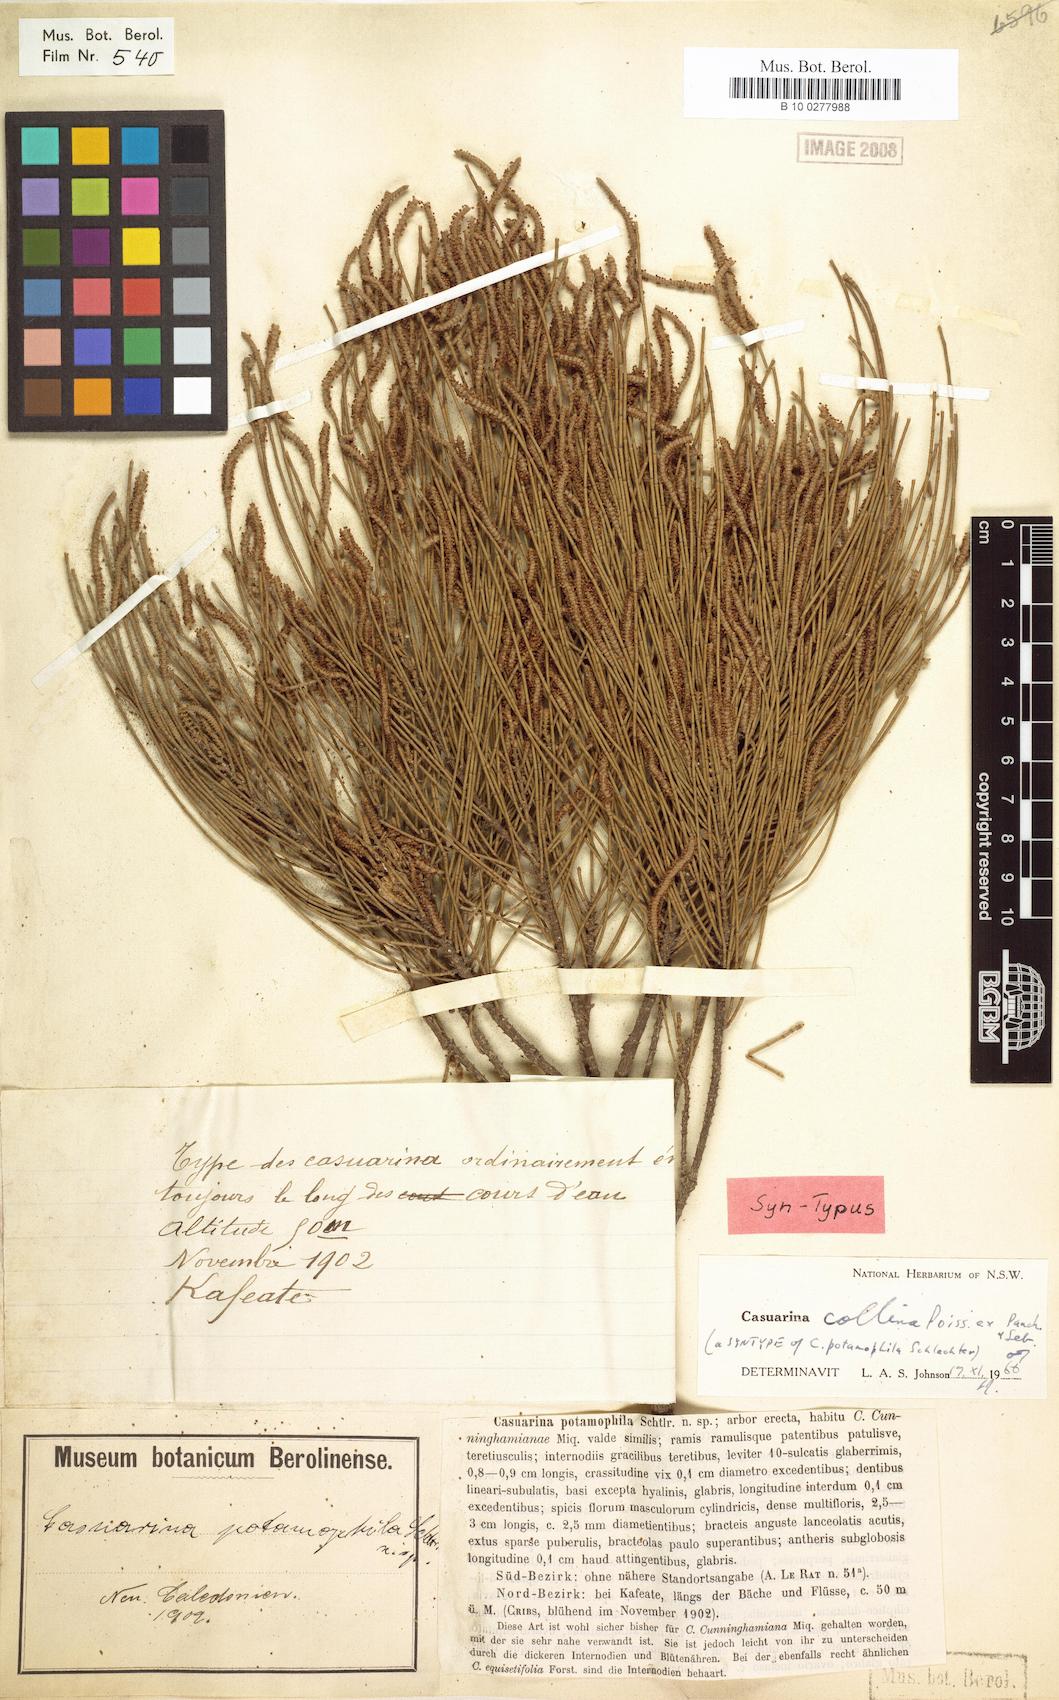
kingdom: Plantae
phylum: Tracheophyta
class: Magnoliopsida
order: Fagales
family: Casuarinaceae
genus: Casuarina
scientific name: Casuarina collina
